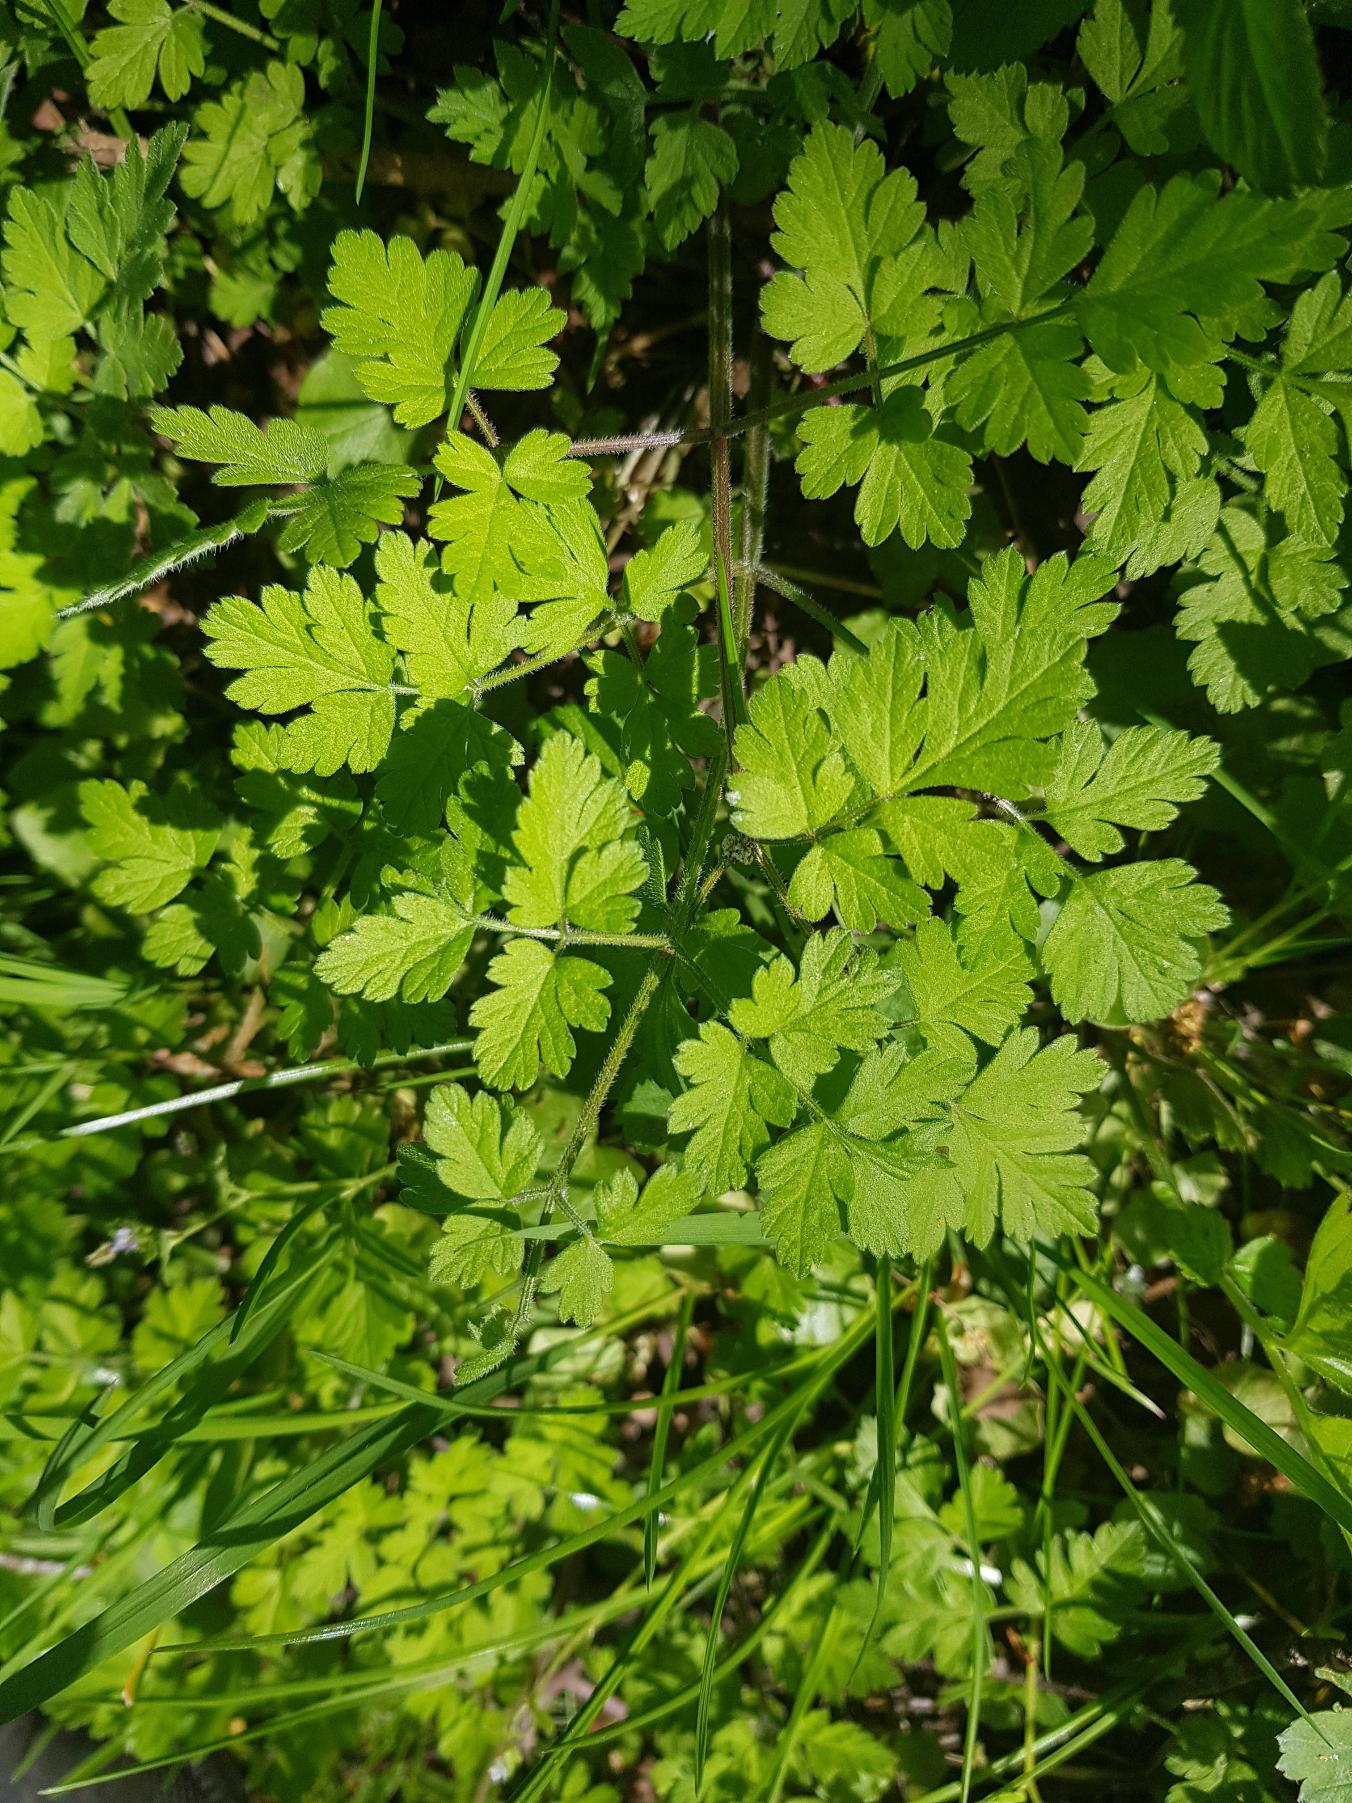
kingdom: Plantae
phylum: Tracheophyta
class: Magnoliopsida
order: Apiales
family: Apiaceae
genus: Chaerophyllum
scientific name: Chaerophyllum temulum
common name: Almindelig hulsvøb
